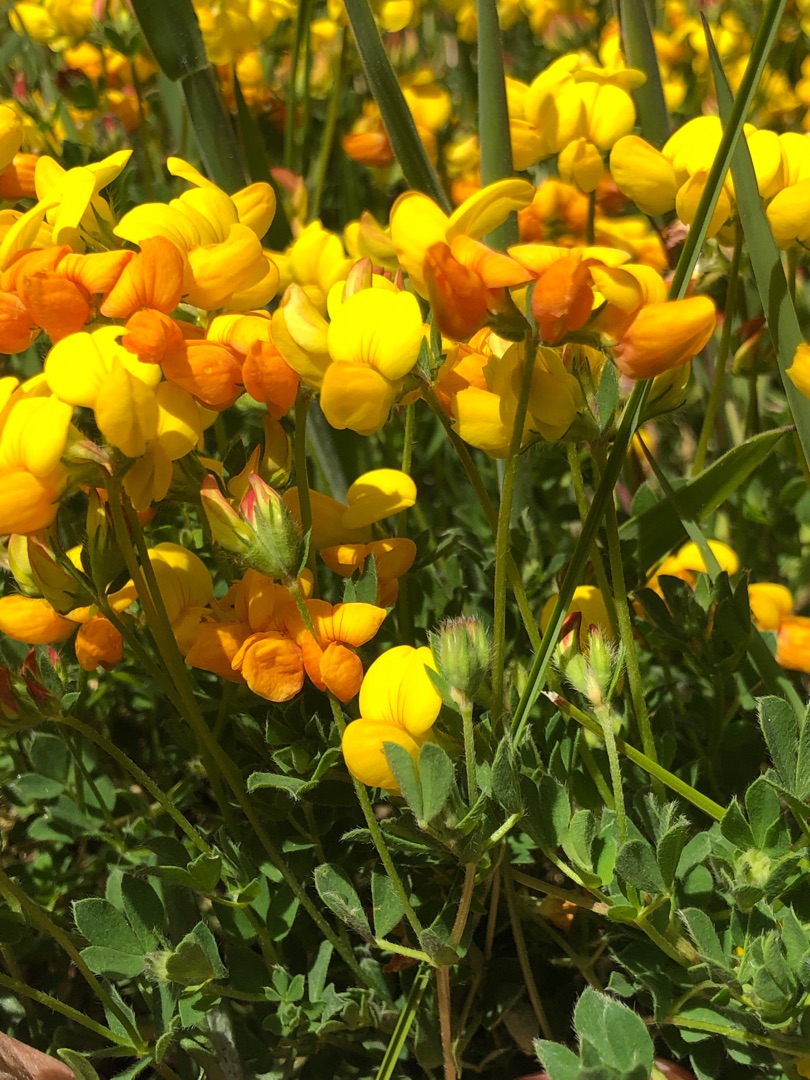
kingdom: Plantae
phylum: Tracheophyta
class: Magnoliopsida
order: Fabales
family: Fabaceae
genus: Lotus
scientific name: Lotus corniculatus
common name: Almindelig kællingetand
